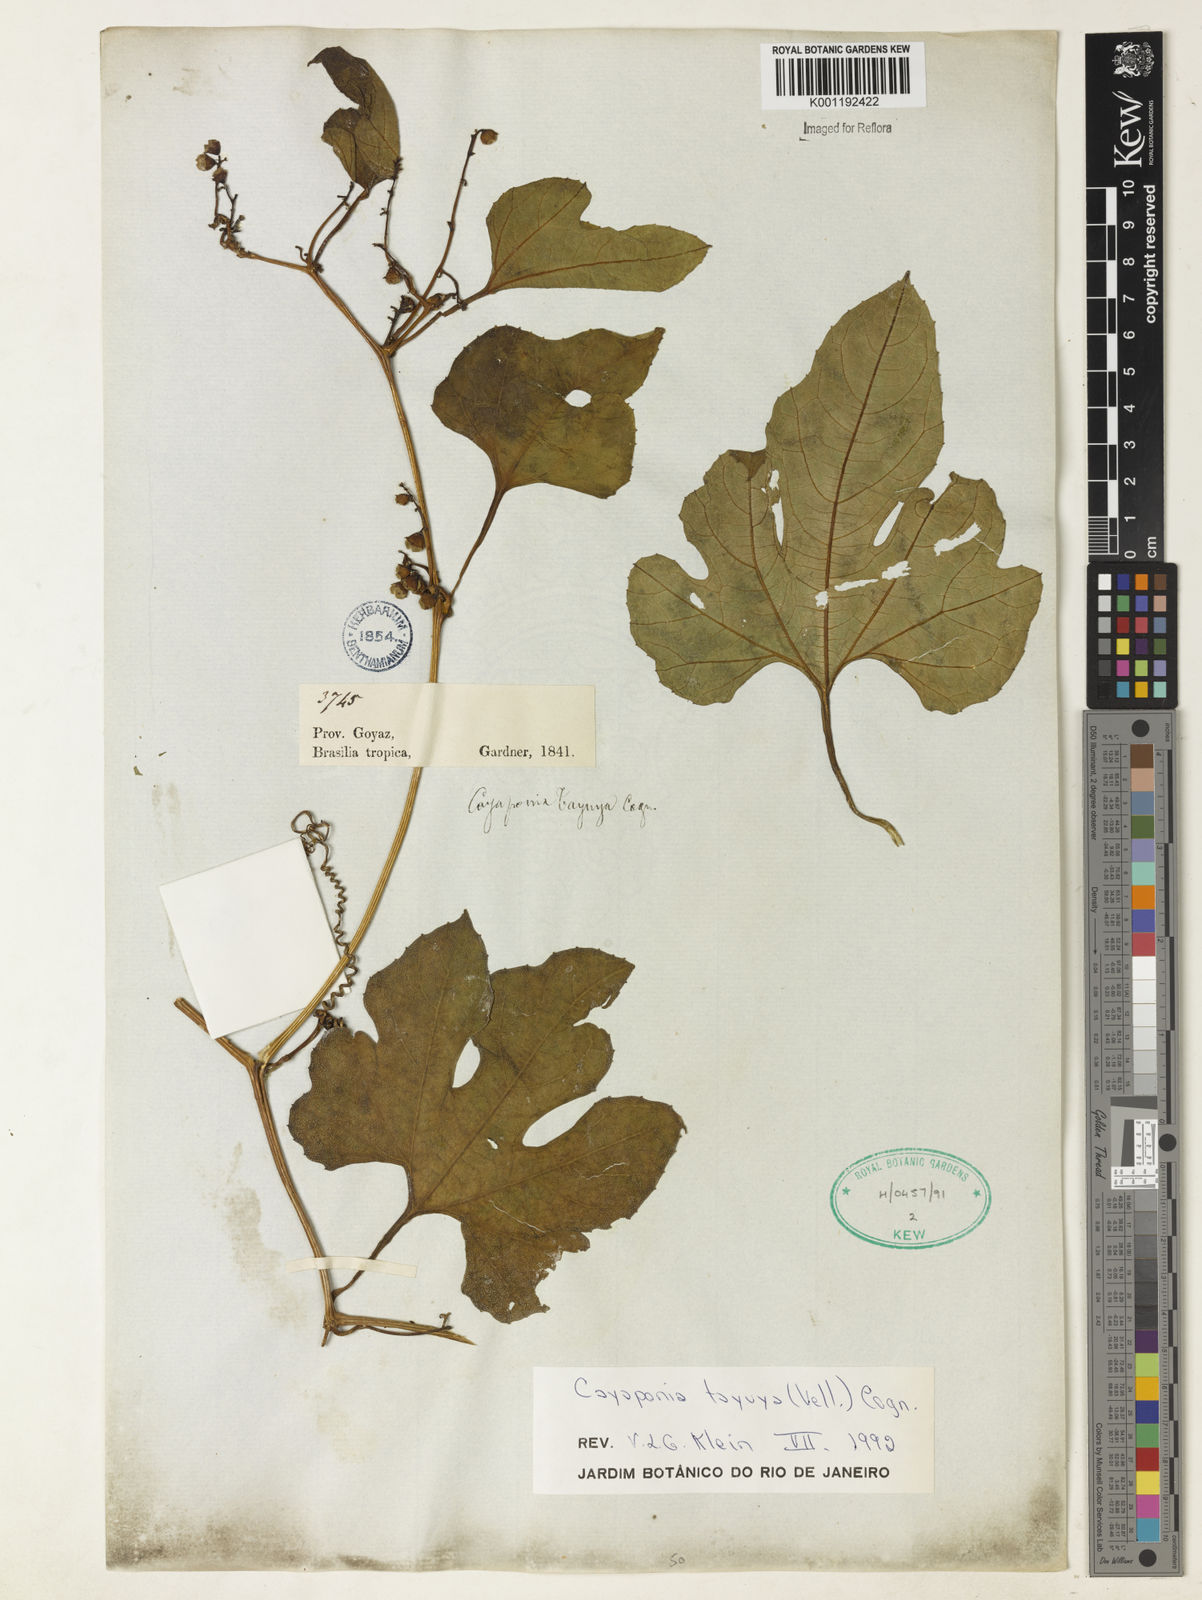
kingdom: Plantae
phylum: Tracheophyta
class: Magnoliopsida
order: Cucurbitales
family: Cucurbitaceae
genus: Cayaponia
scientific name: Cayaponia tayuya
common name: Tayuya
